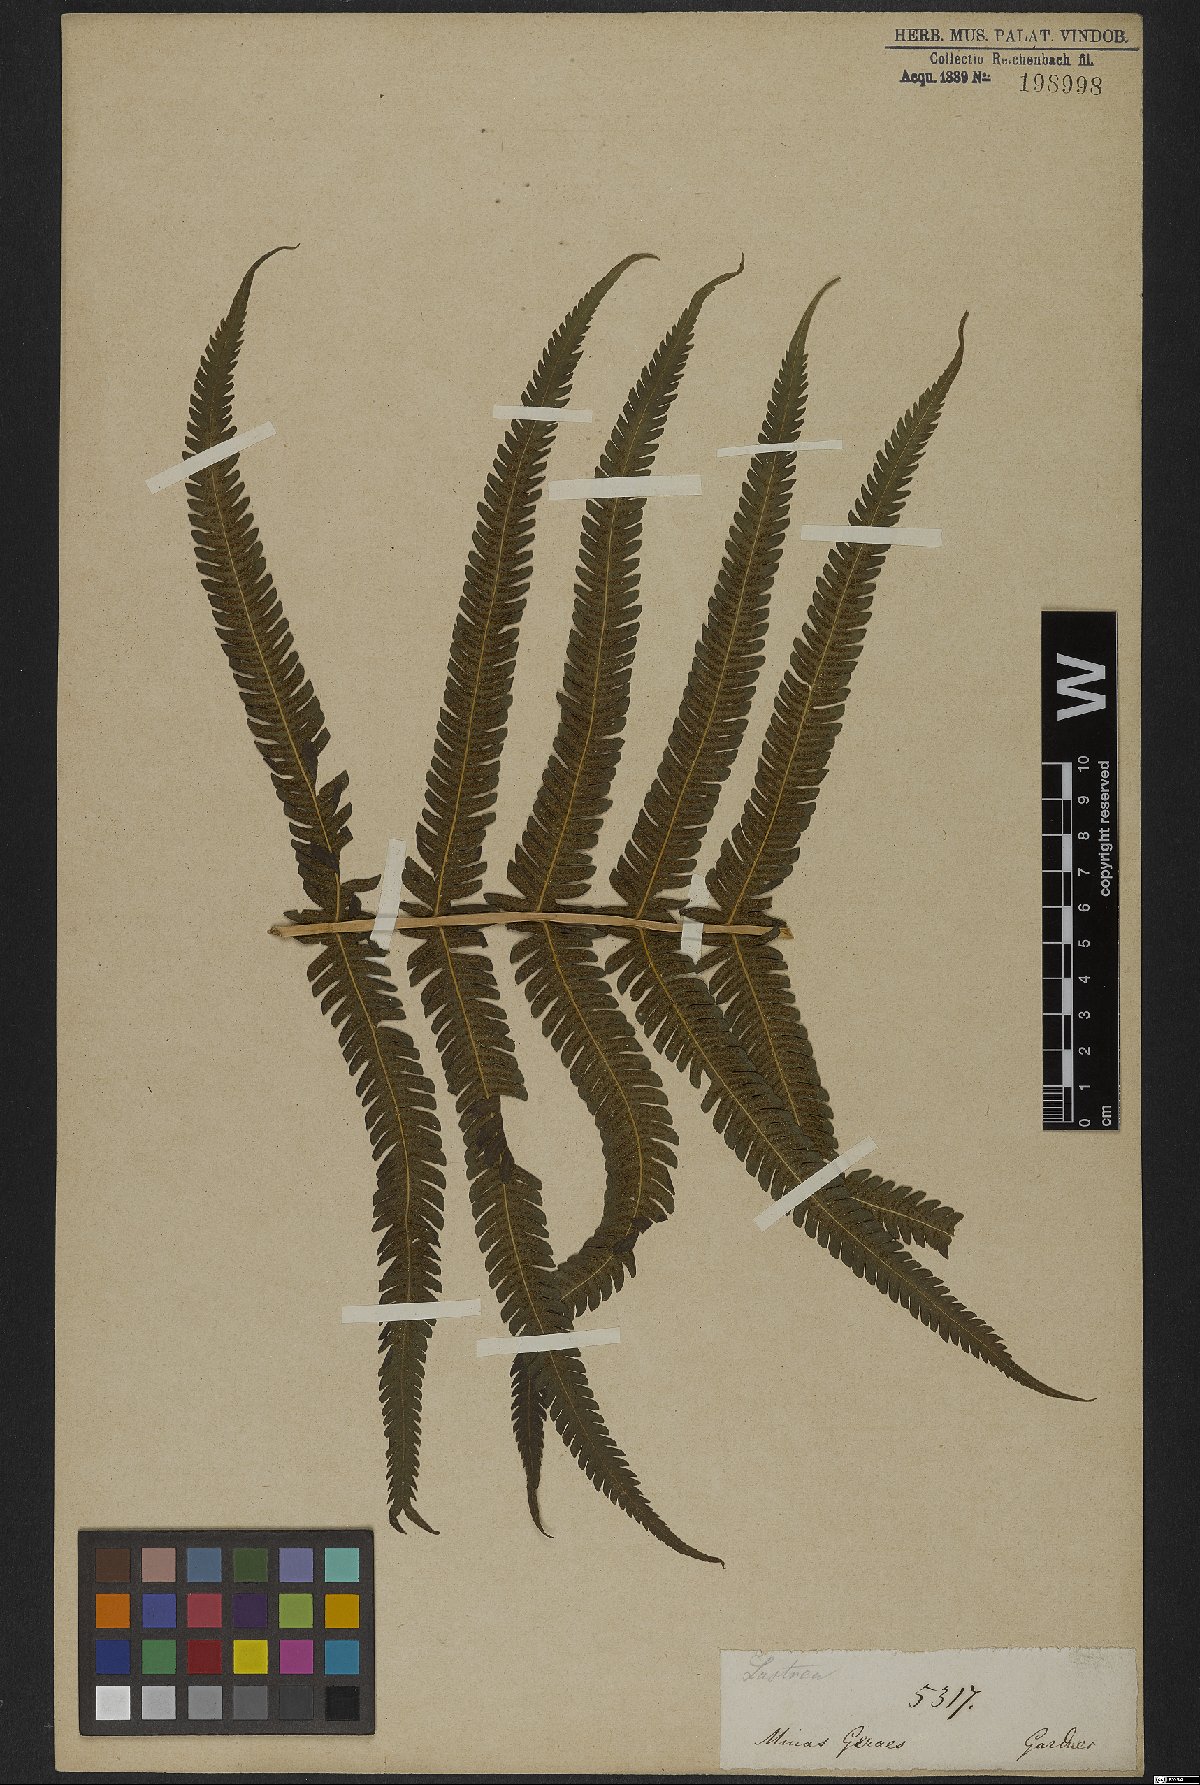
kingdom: Plantae
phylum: Tracheophyta
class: Polypodiopsida
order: Polypodiales
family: Dryopteridaceae
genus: Dryopteris
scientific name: Dryopteris
